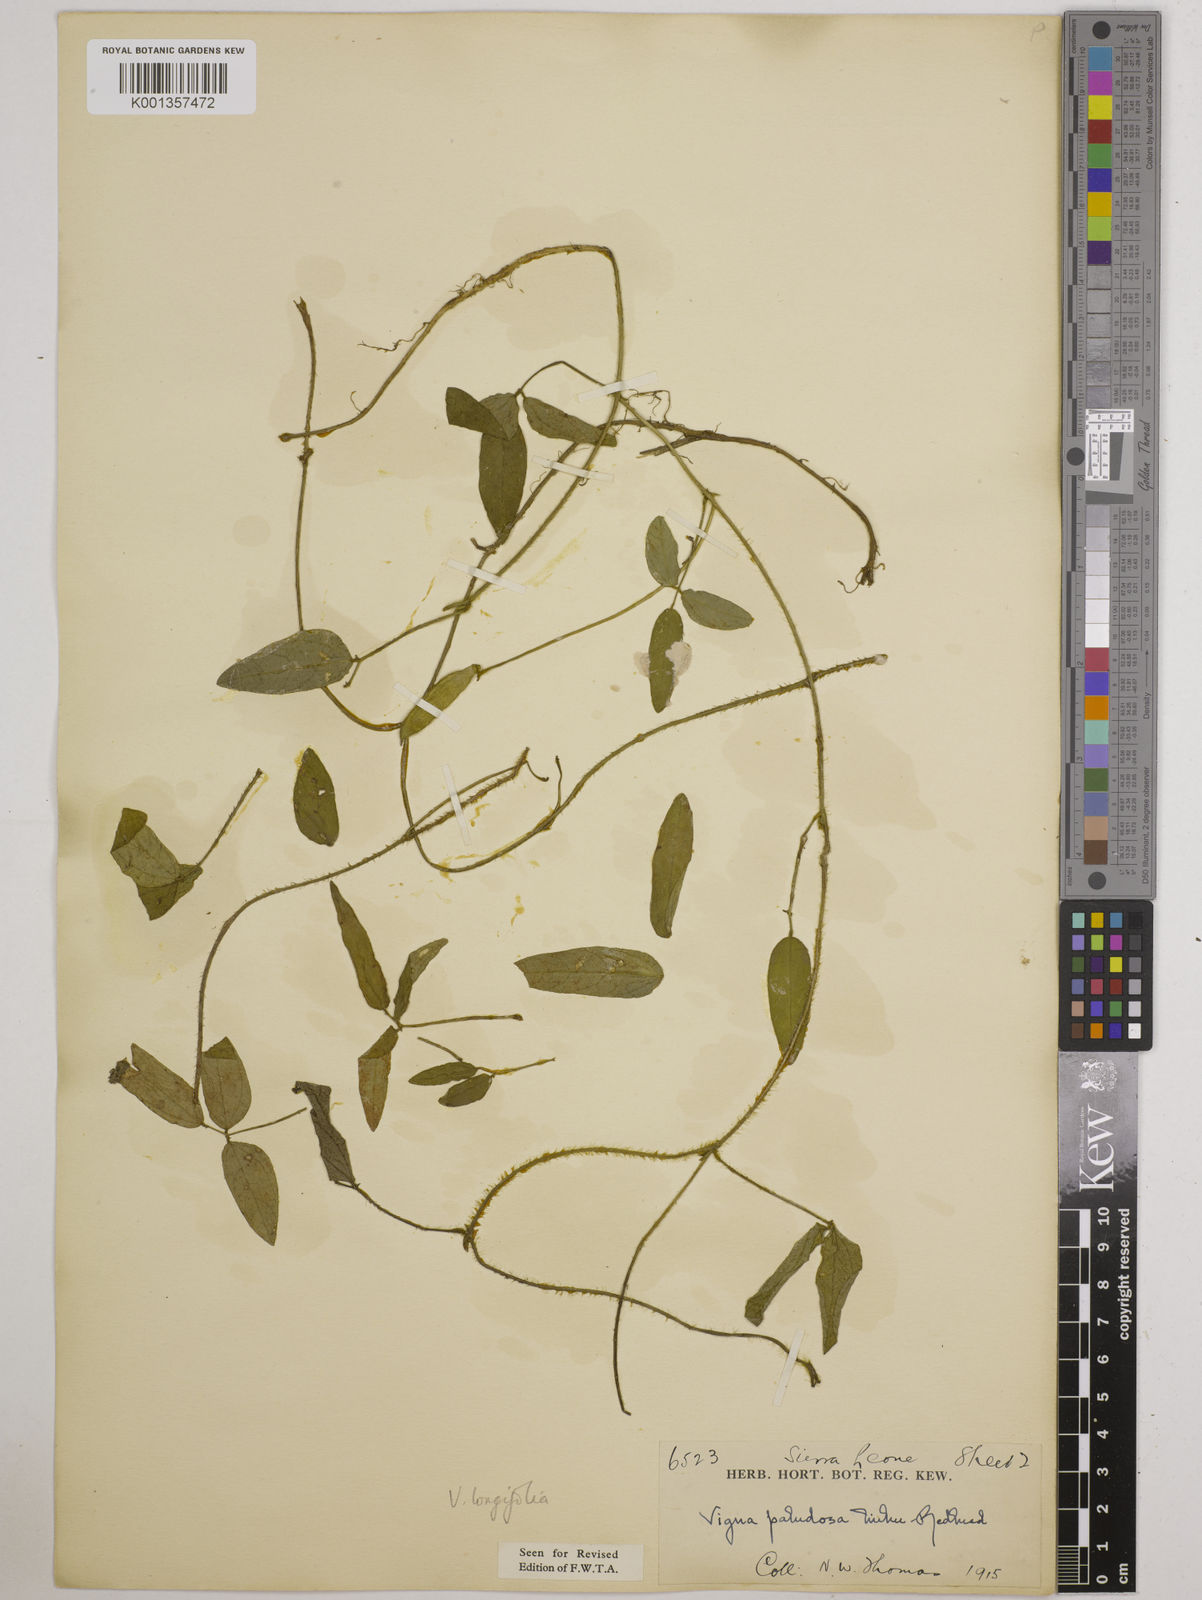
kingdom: Plantae
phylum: Tracheophyta
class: Magnoliopsida
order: Fabales
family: Fabaceae
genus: Vigna
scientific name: Vigna longifolia
